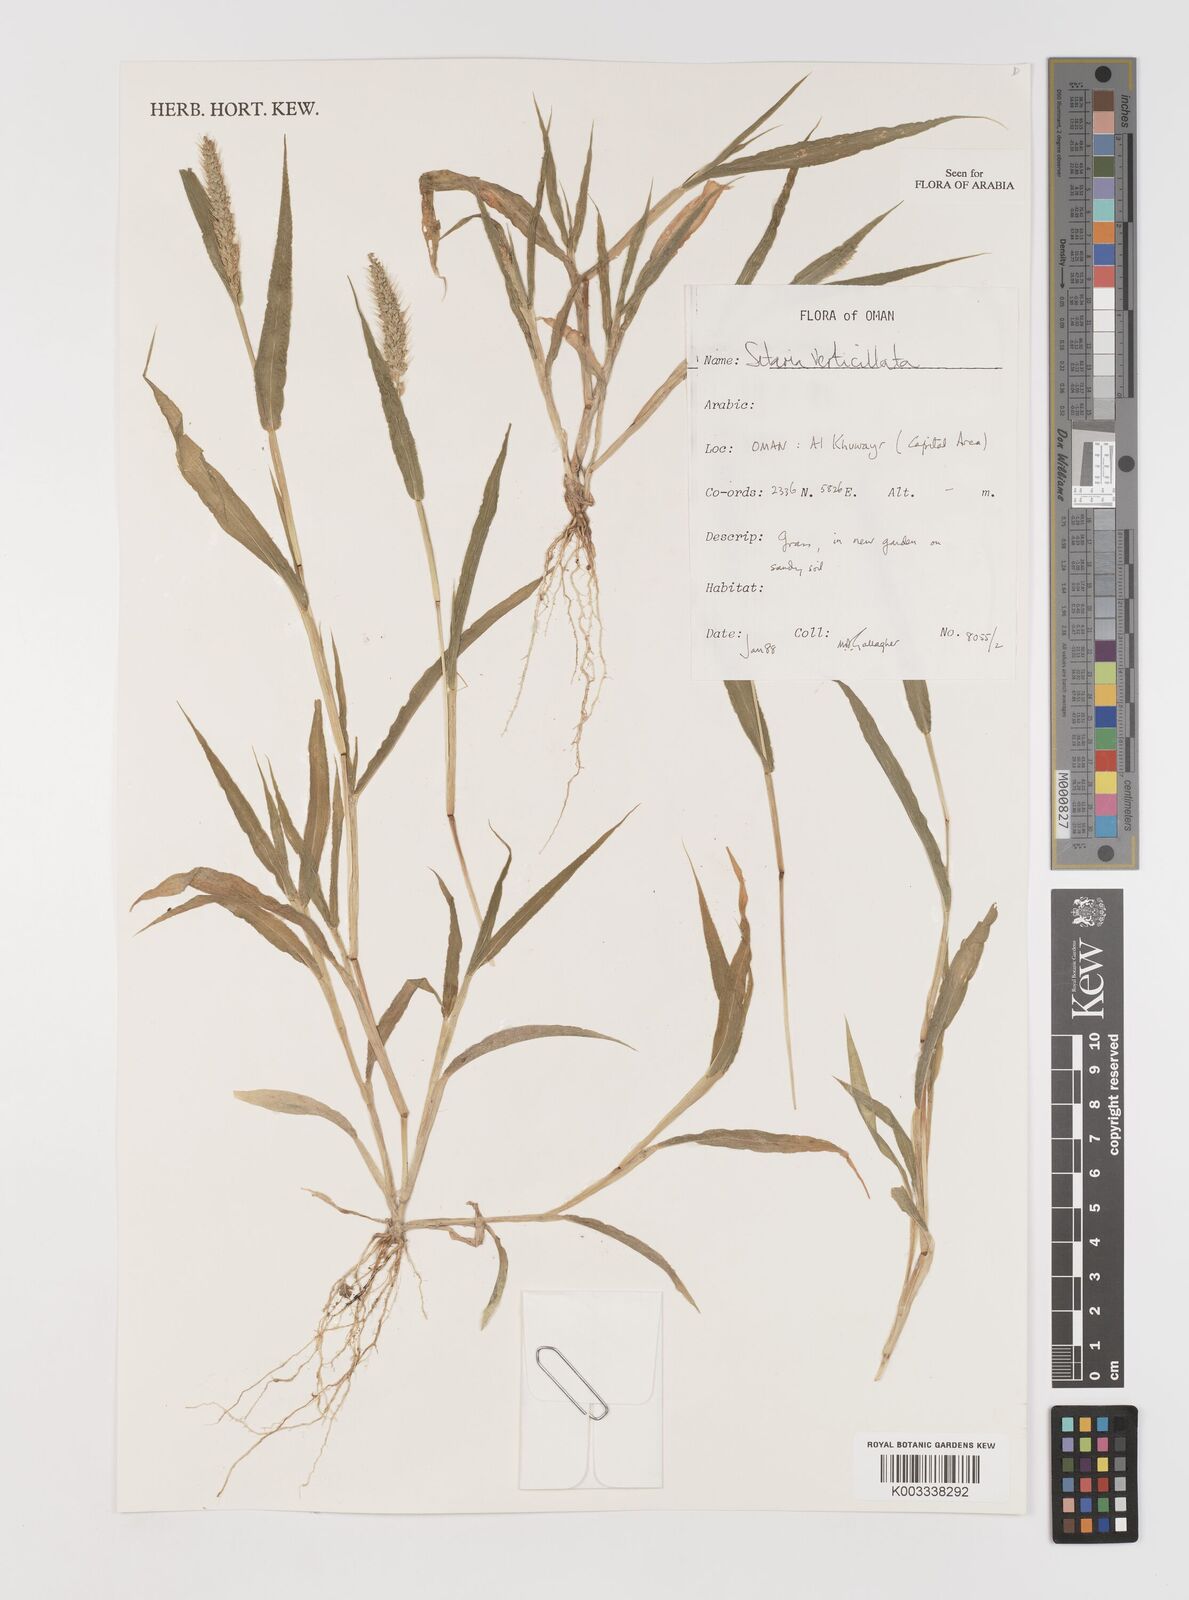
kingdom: Plantae
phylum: Tracheophyta
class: Liliopsida
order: Poales
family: Poaceae
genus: Setaria
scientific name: Setaria verticillata
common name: Hooked bristlegrass
